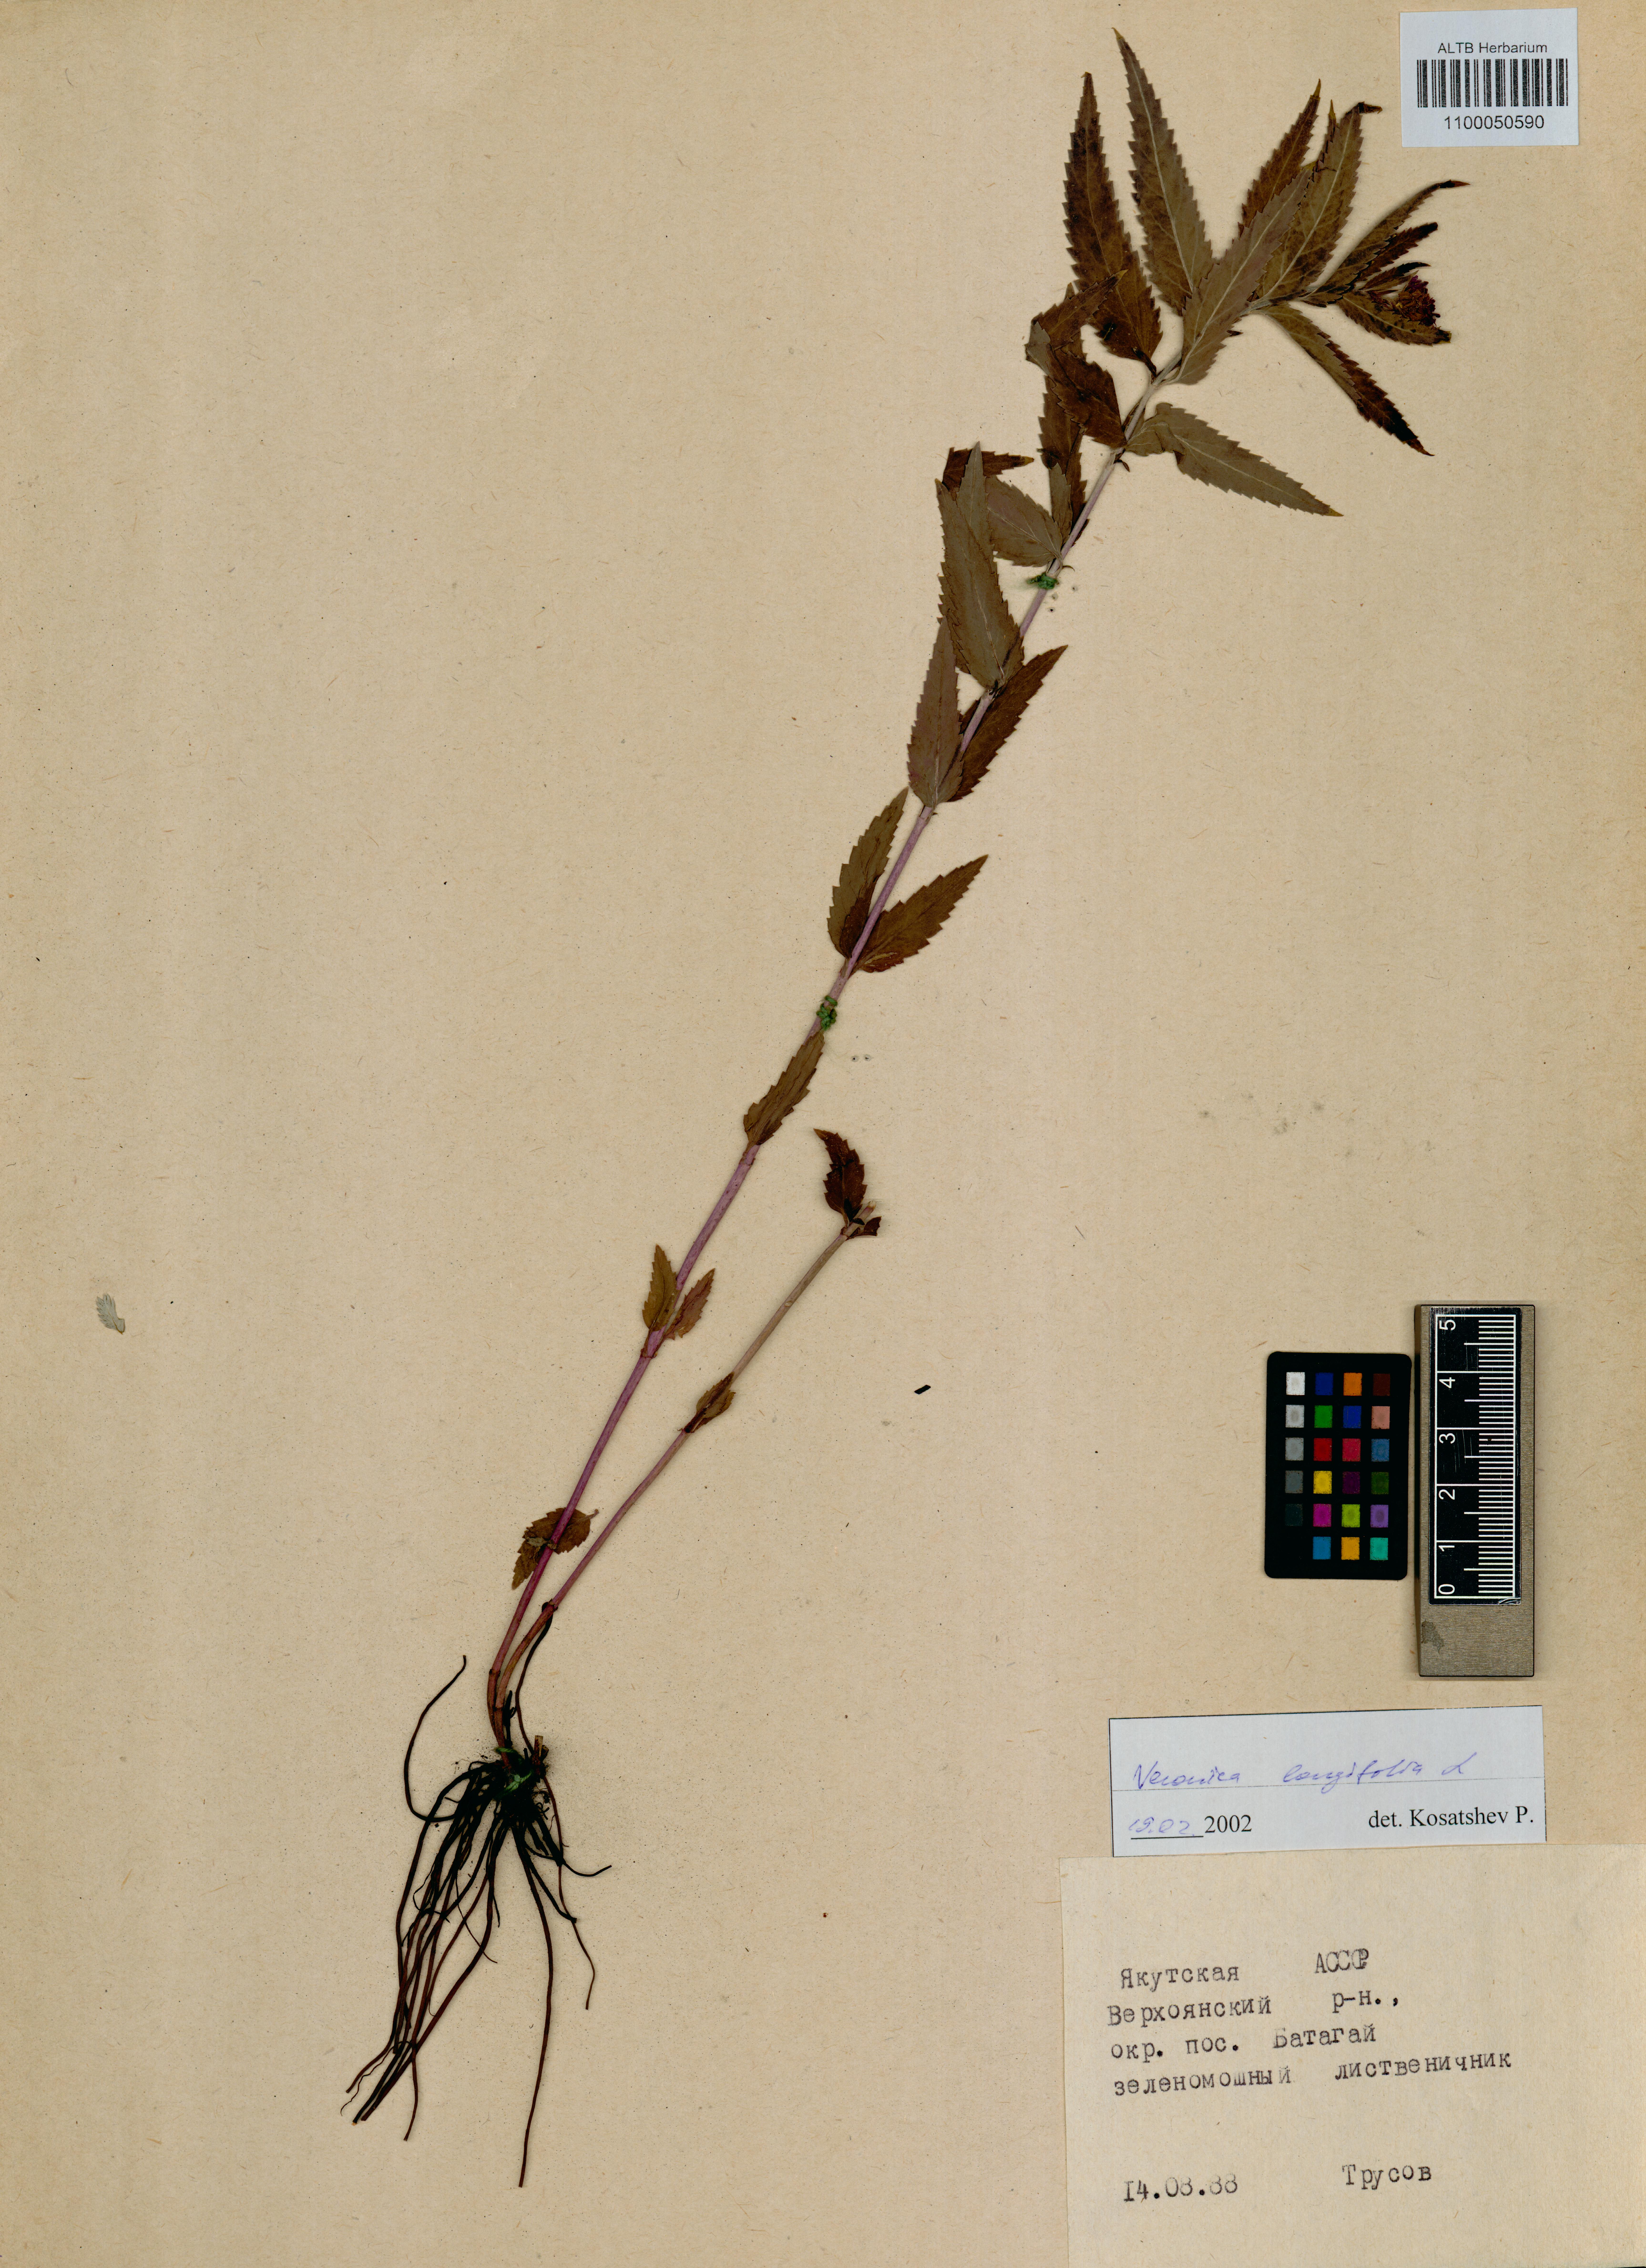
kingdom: Plantae
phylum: Tracheophyta
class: Magnoliopsida
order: Lamiales
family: Plantaginaceae
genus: Veronica
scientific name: Veronica longifolia
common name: Garden speedwell
